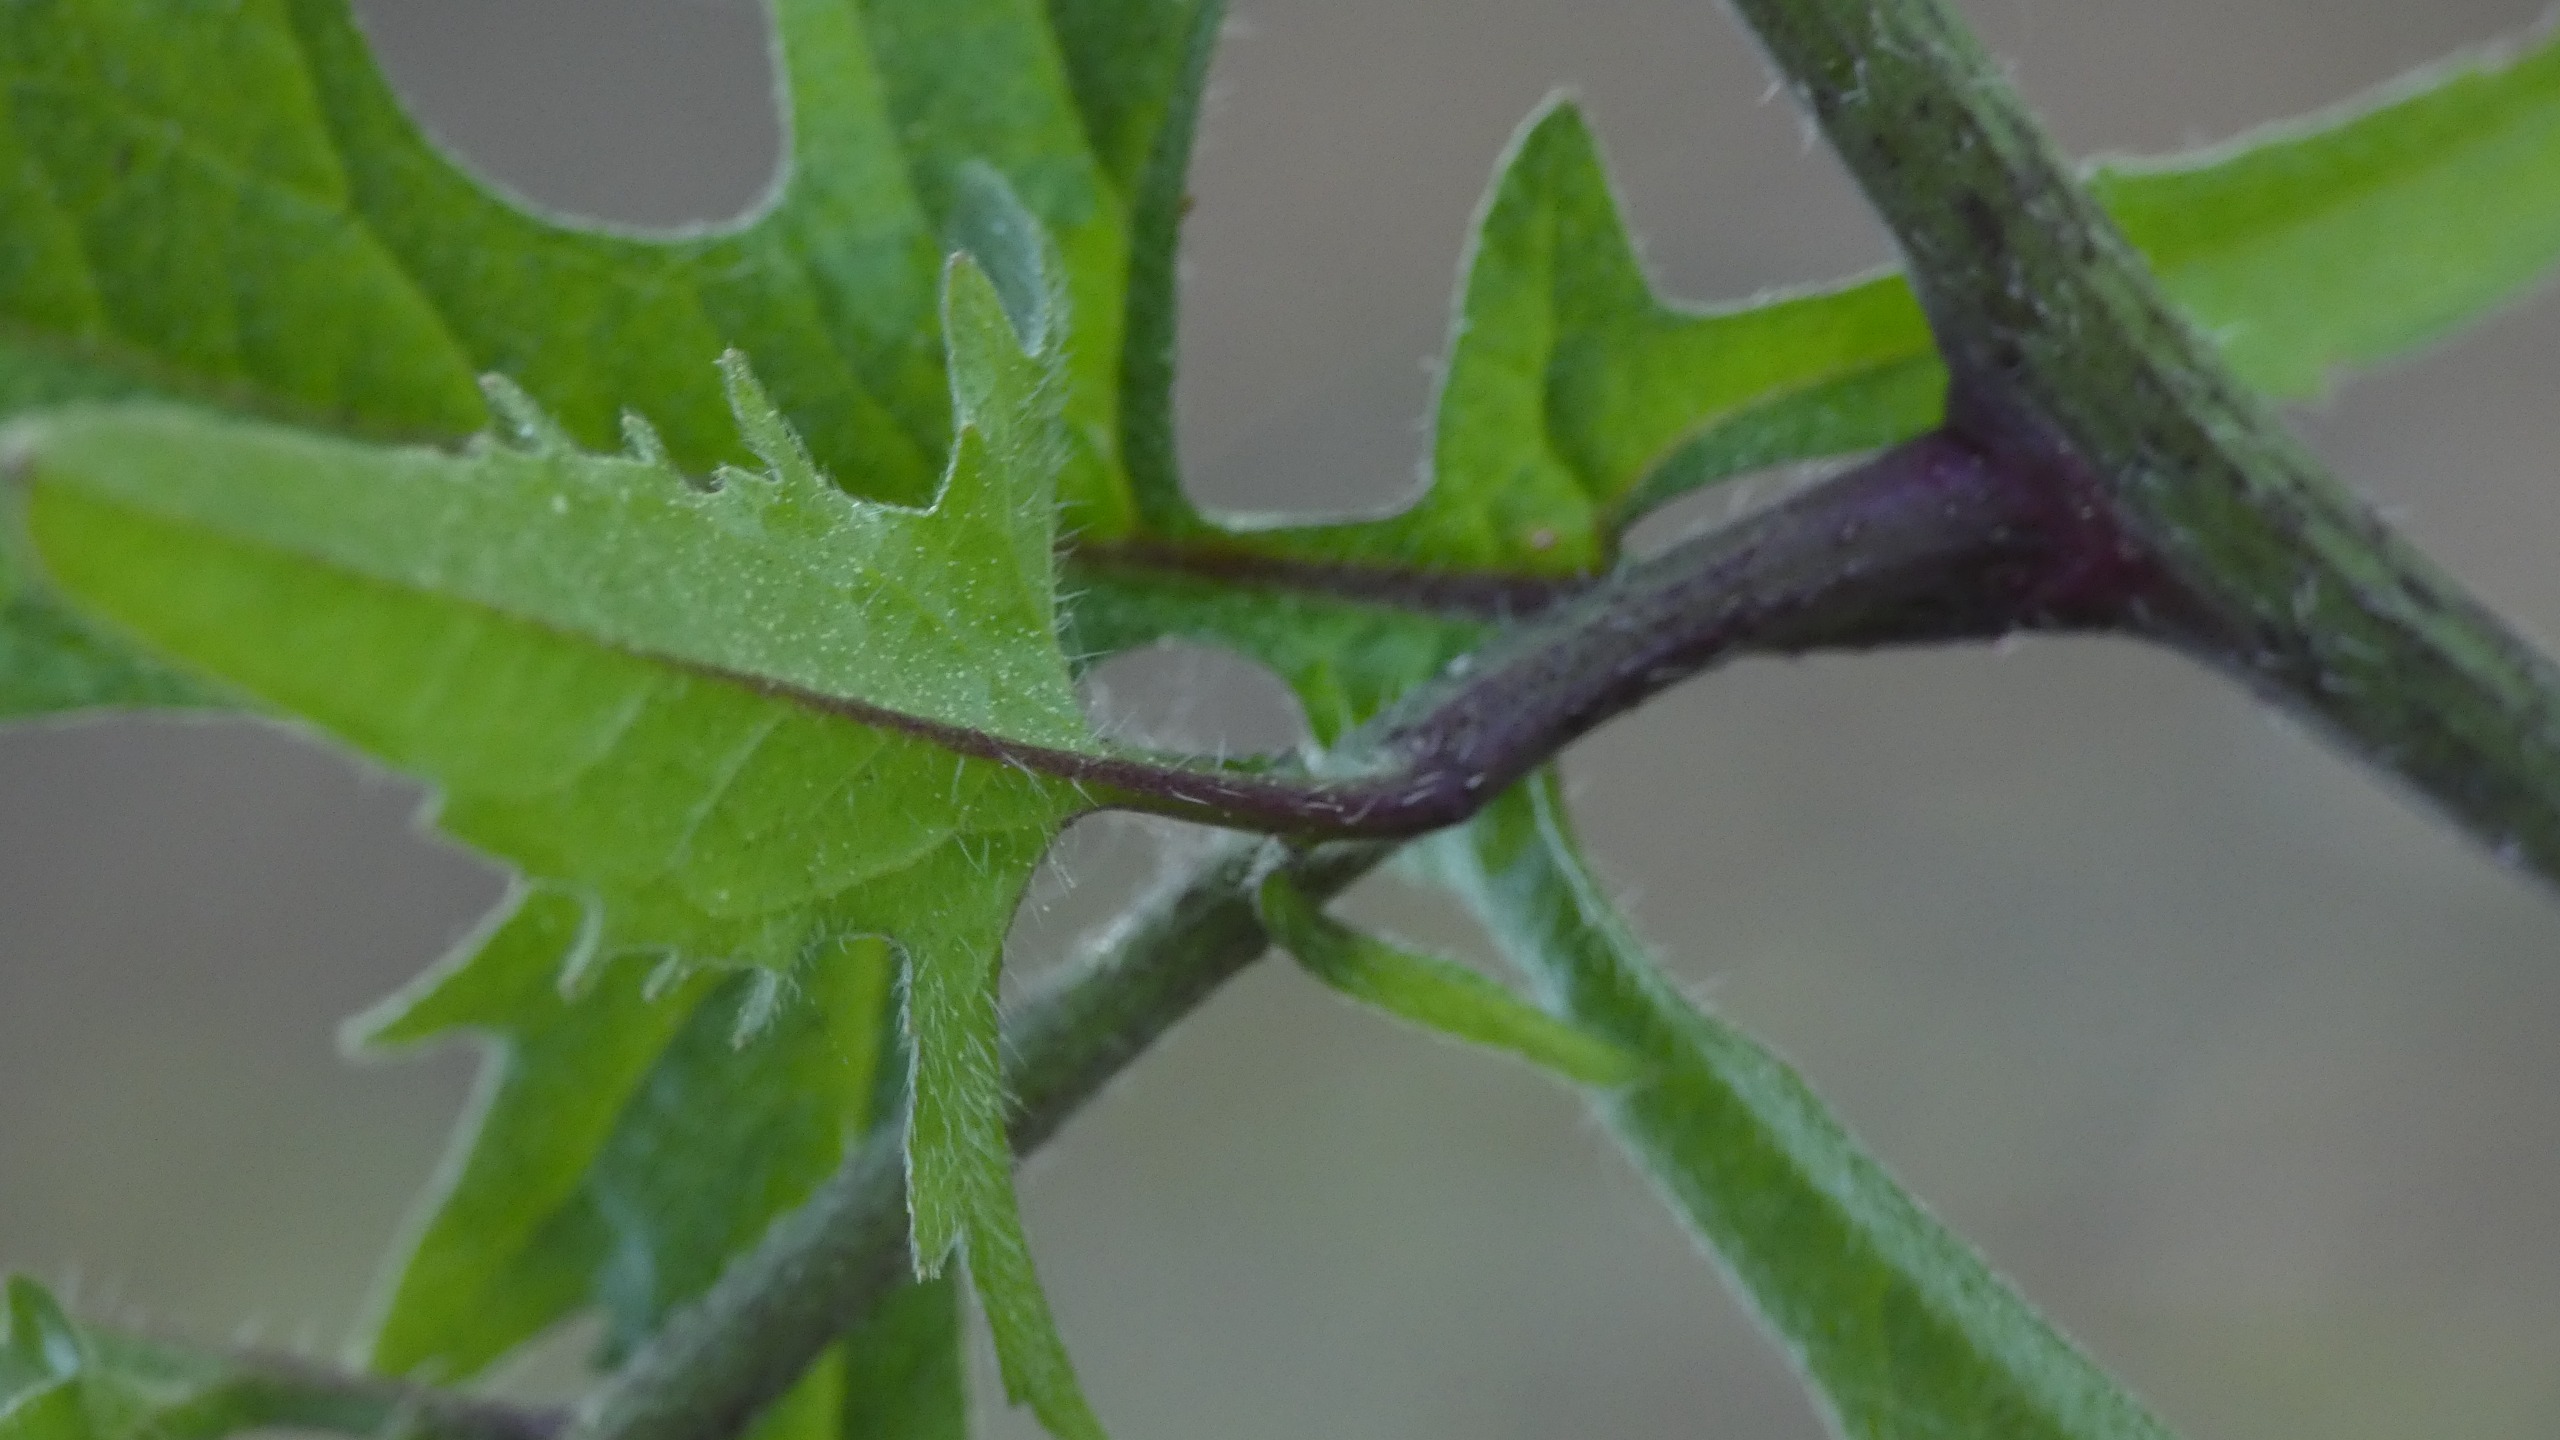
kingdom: Plantae
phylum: Tracheophyta
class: Magnoliopsida
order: Brassicales
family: Brassicaceae
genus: Sisymbrium
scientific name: Sisymbrium officinale
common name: Rank vejsennep
